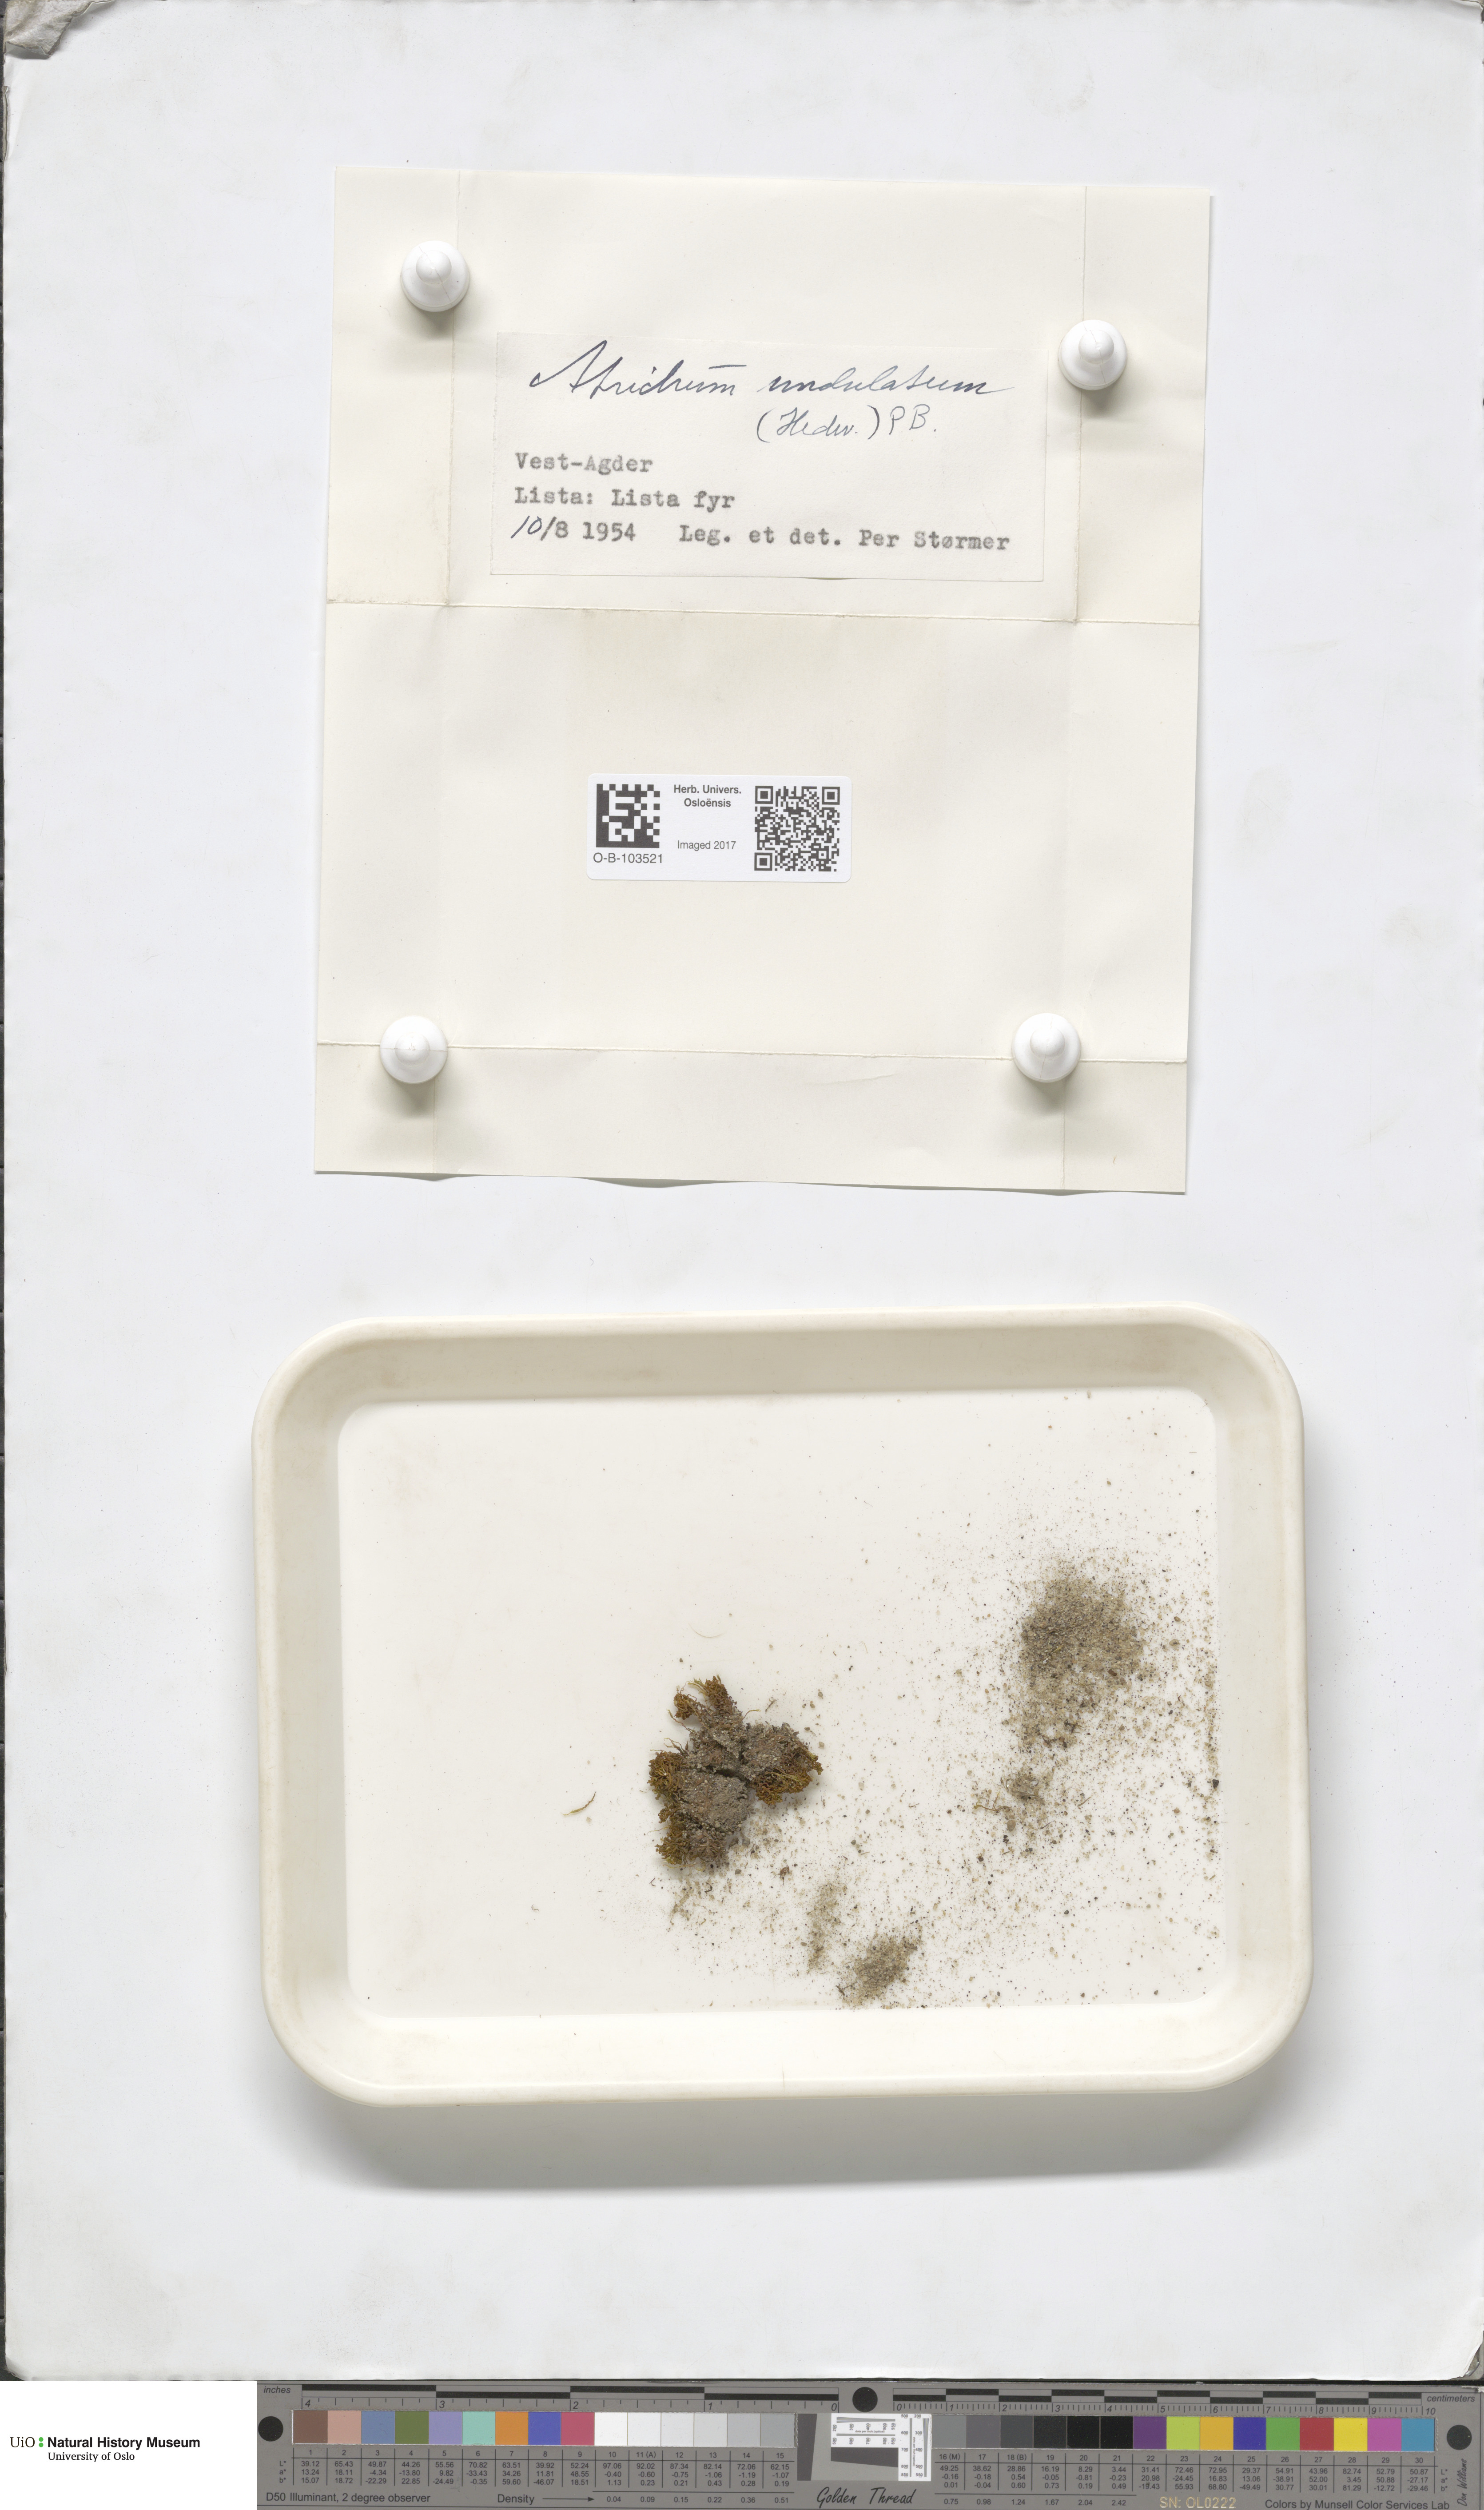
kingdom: Plantae
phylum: Bryophyta
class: Polytrichopsida
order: Polytrichales
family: Polytrichaceae
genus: Atrichum
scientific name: Atrichum undulatum
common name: Common smoothcap
